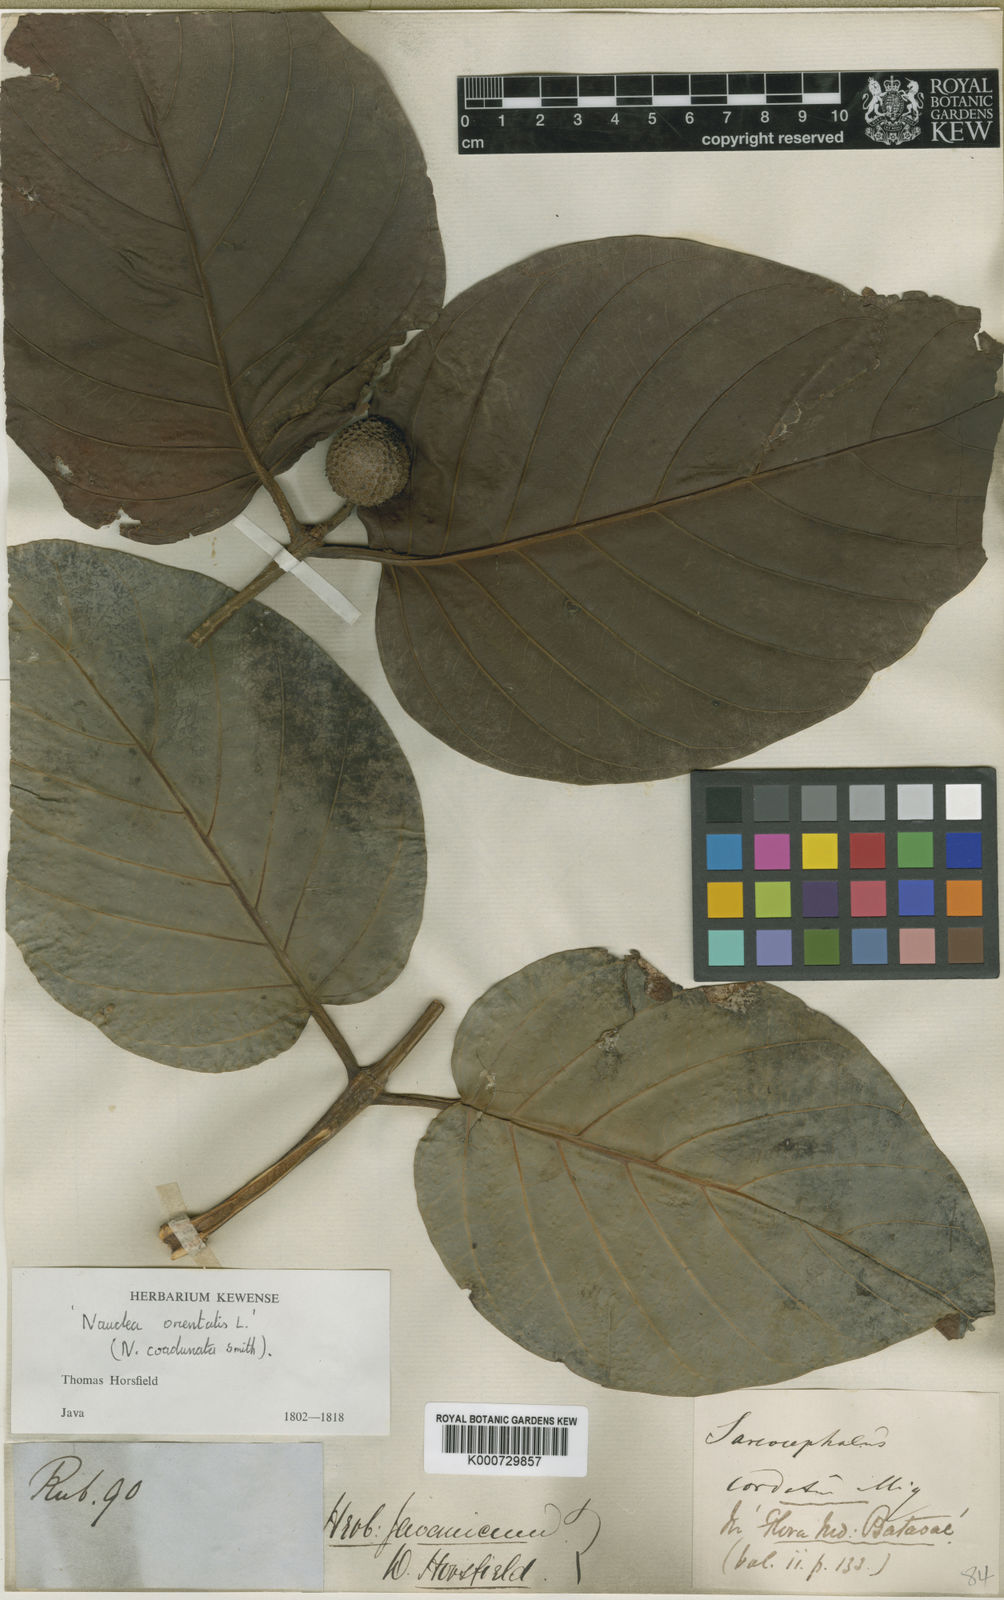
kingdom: Plantae
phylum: Tracheophyta
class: Magnoliopsida
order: Gentianales
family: Rubiaceae
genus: Nauclea
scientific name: Nauclea orientalis
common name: Leichhardt-pine
